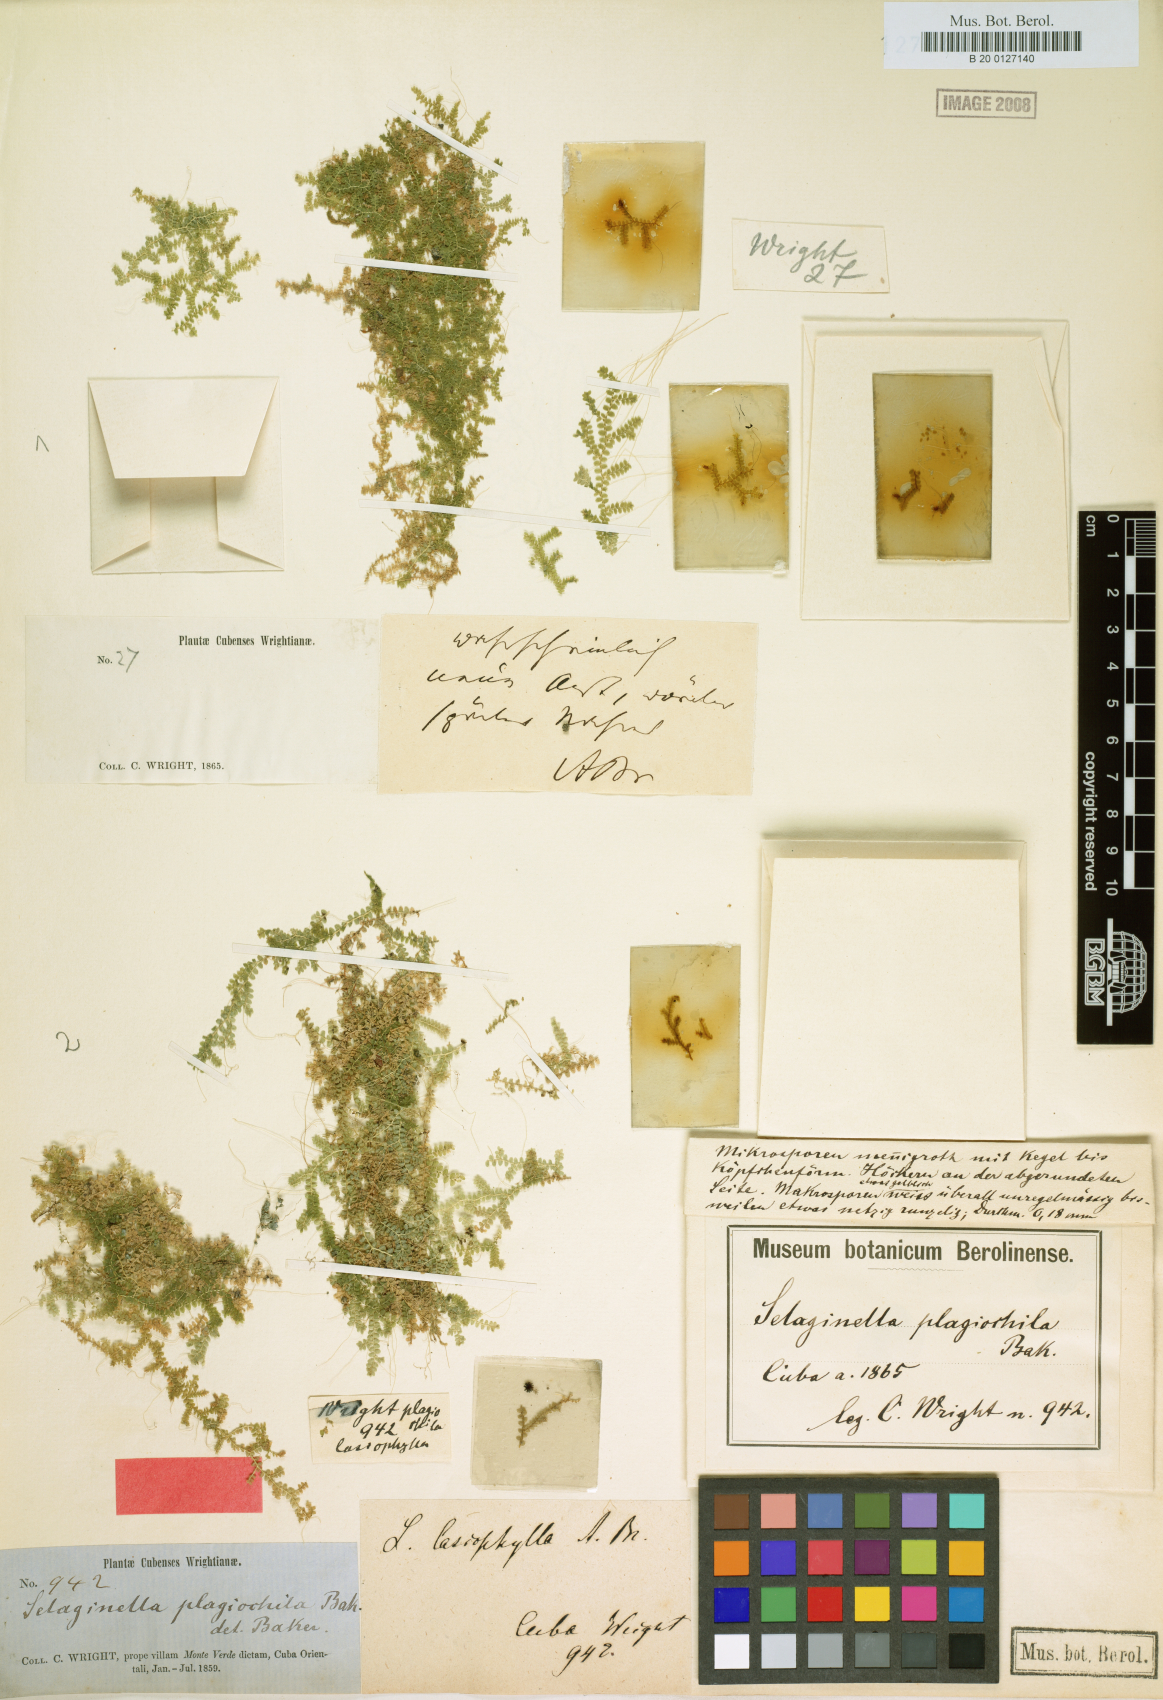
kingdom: Plantae
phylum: Tracheophyta
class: Lycopodiopsida
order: Selaginellales
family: Selaginellaceae
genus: Selaginella
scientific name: Selaginella plagiochila
